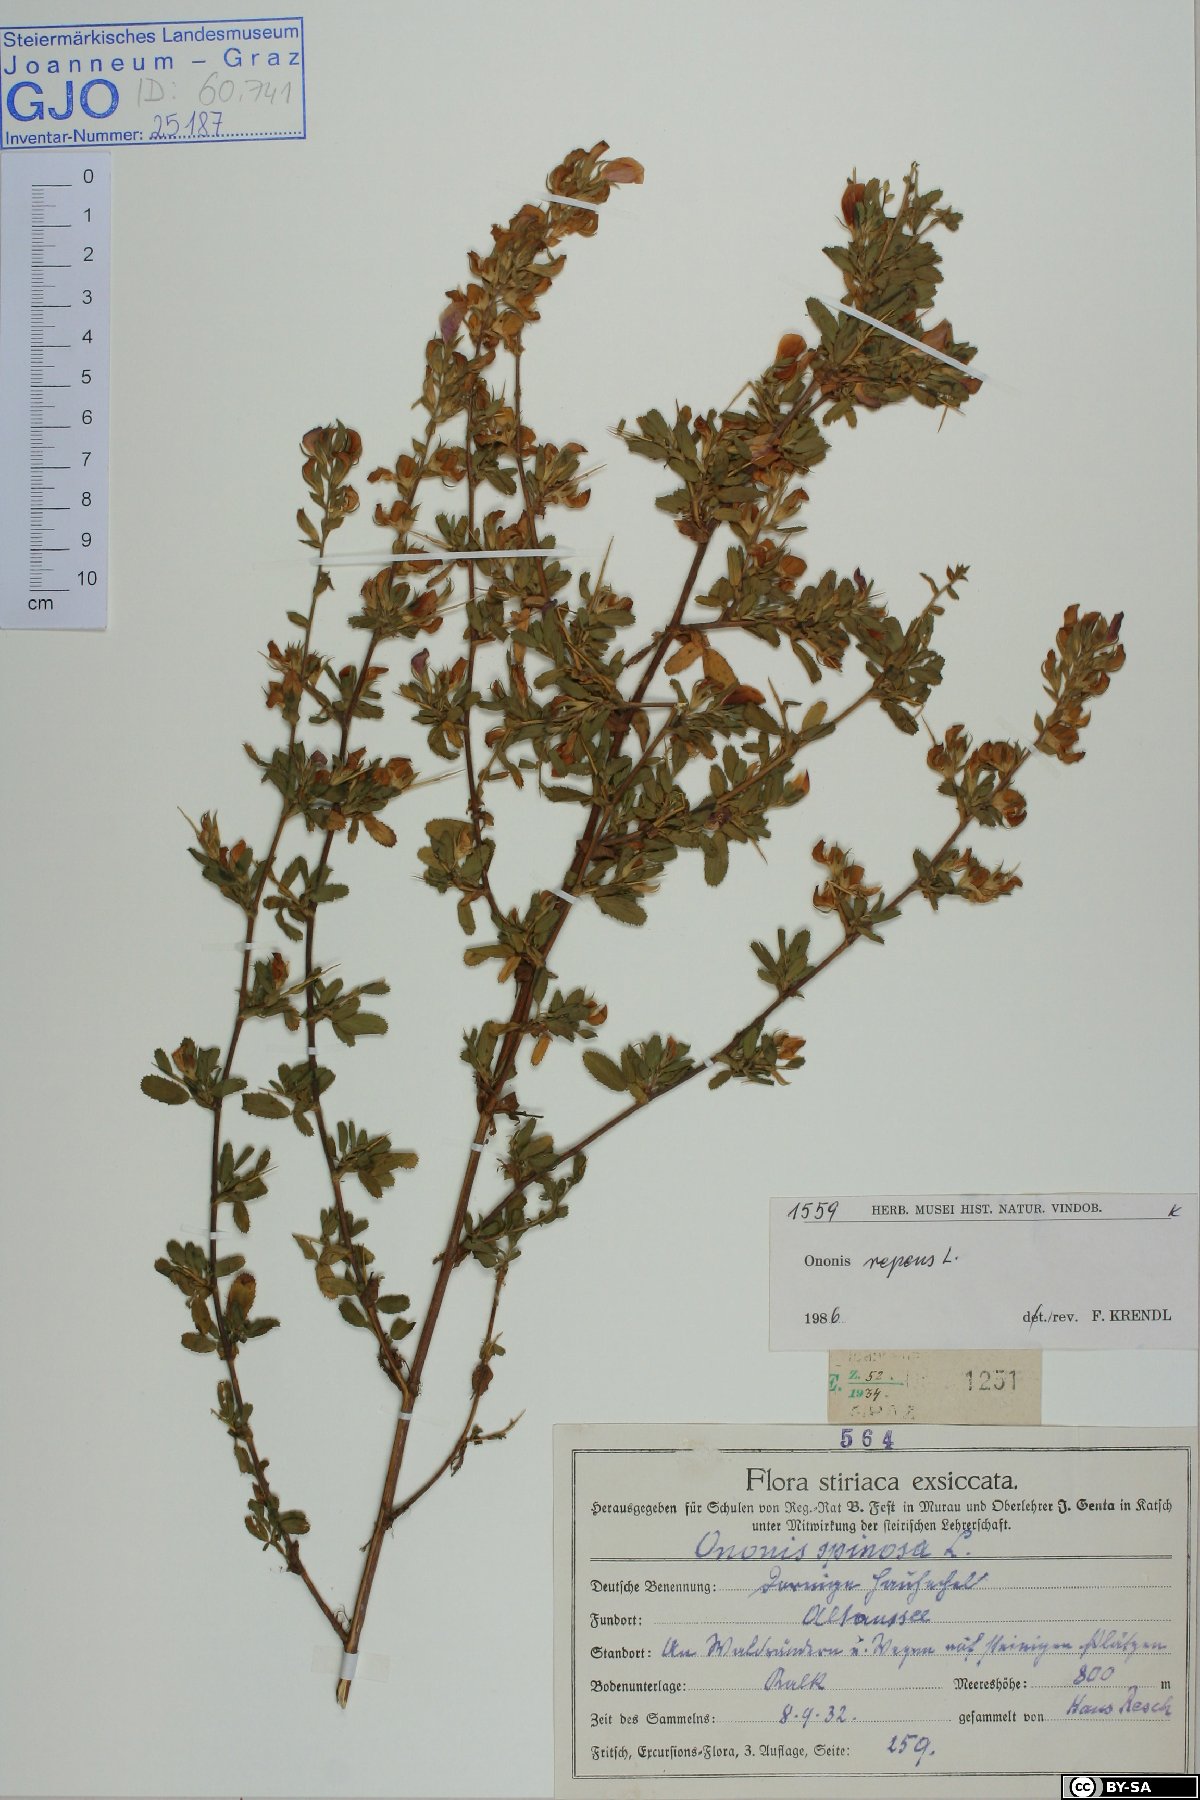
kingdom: Plantae
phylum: Tracheophyta
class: Magnoliopsida
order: Fabales
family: Fabaceae
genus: Ononis
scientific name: Ononis spinosa
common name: Spiny restharrow
